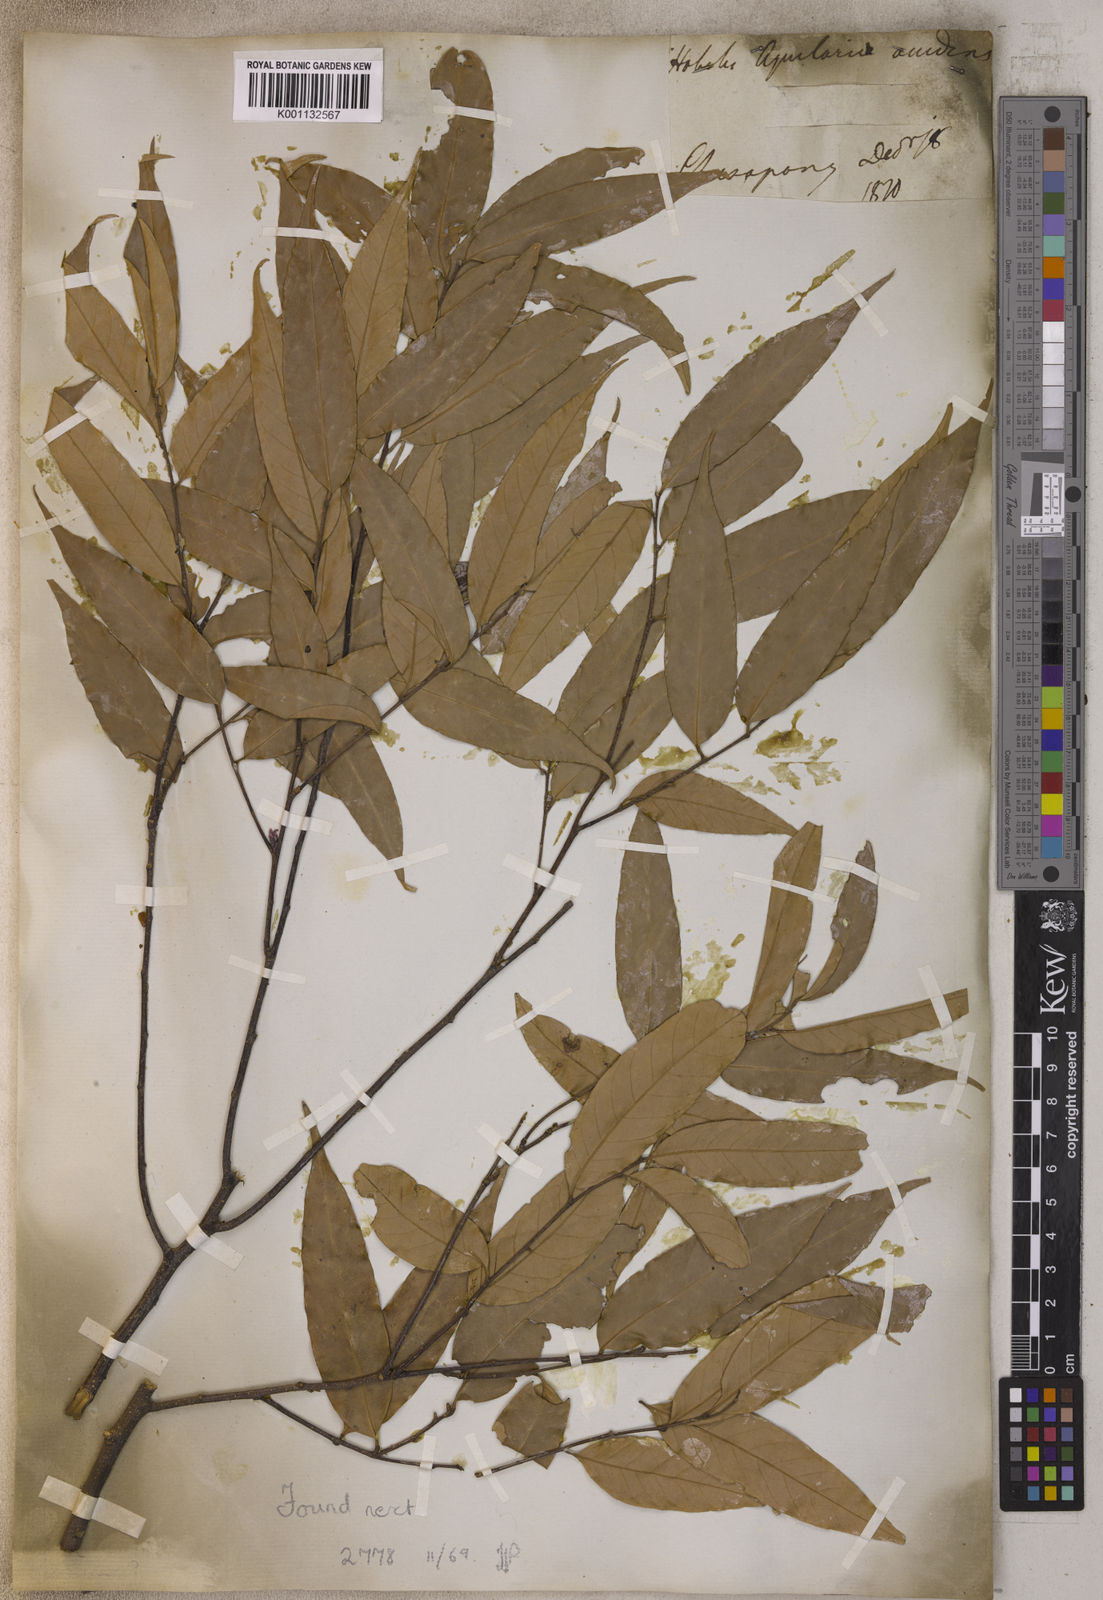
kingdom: Plantae
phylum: Tracheophyta
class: Magnoliopsida
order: Fagales
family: Fagaceae
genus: Quercus
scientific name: Quercus
